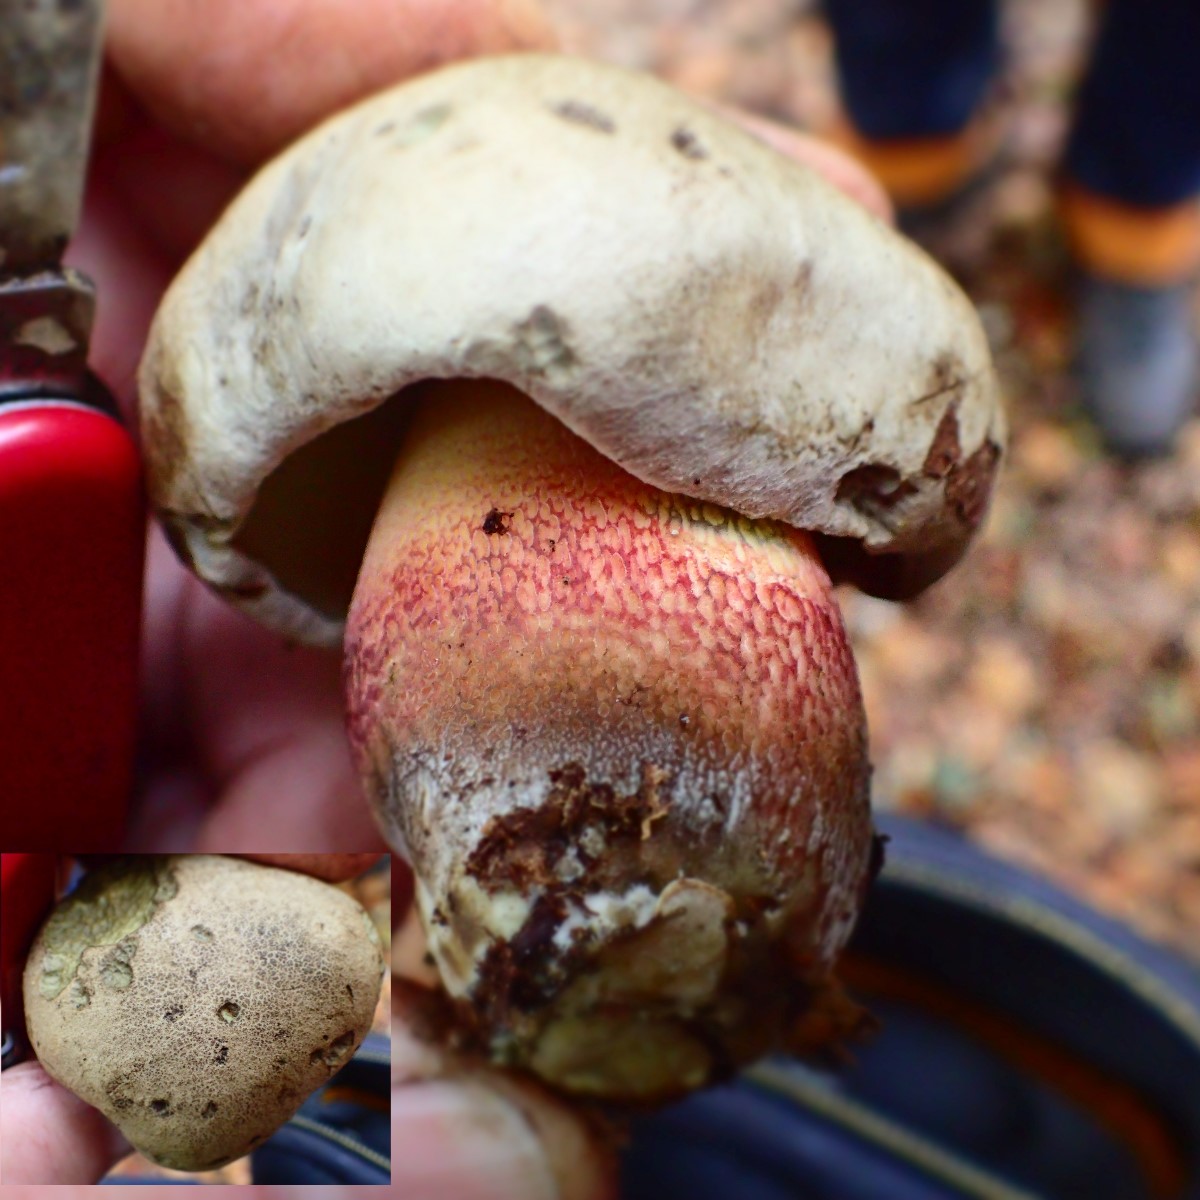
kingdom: Fungi
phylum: Basidiomycota
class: Agaricomycetes
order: Boletales
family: Boletaceae
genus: Caloboletus
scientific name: Caloboletus calopus
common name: skønfodet rørhat
